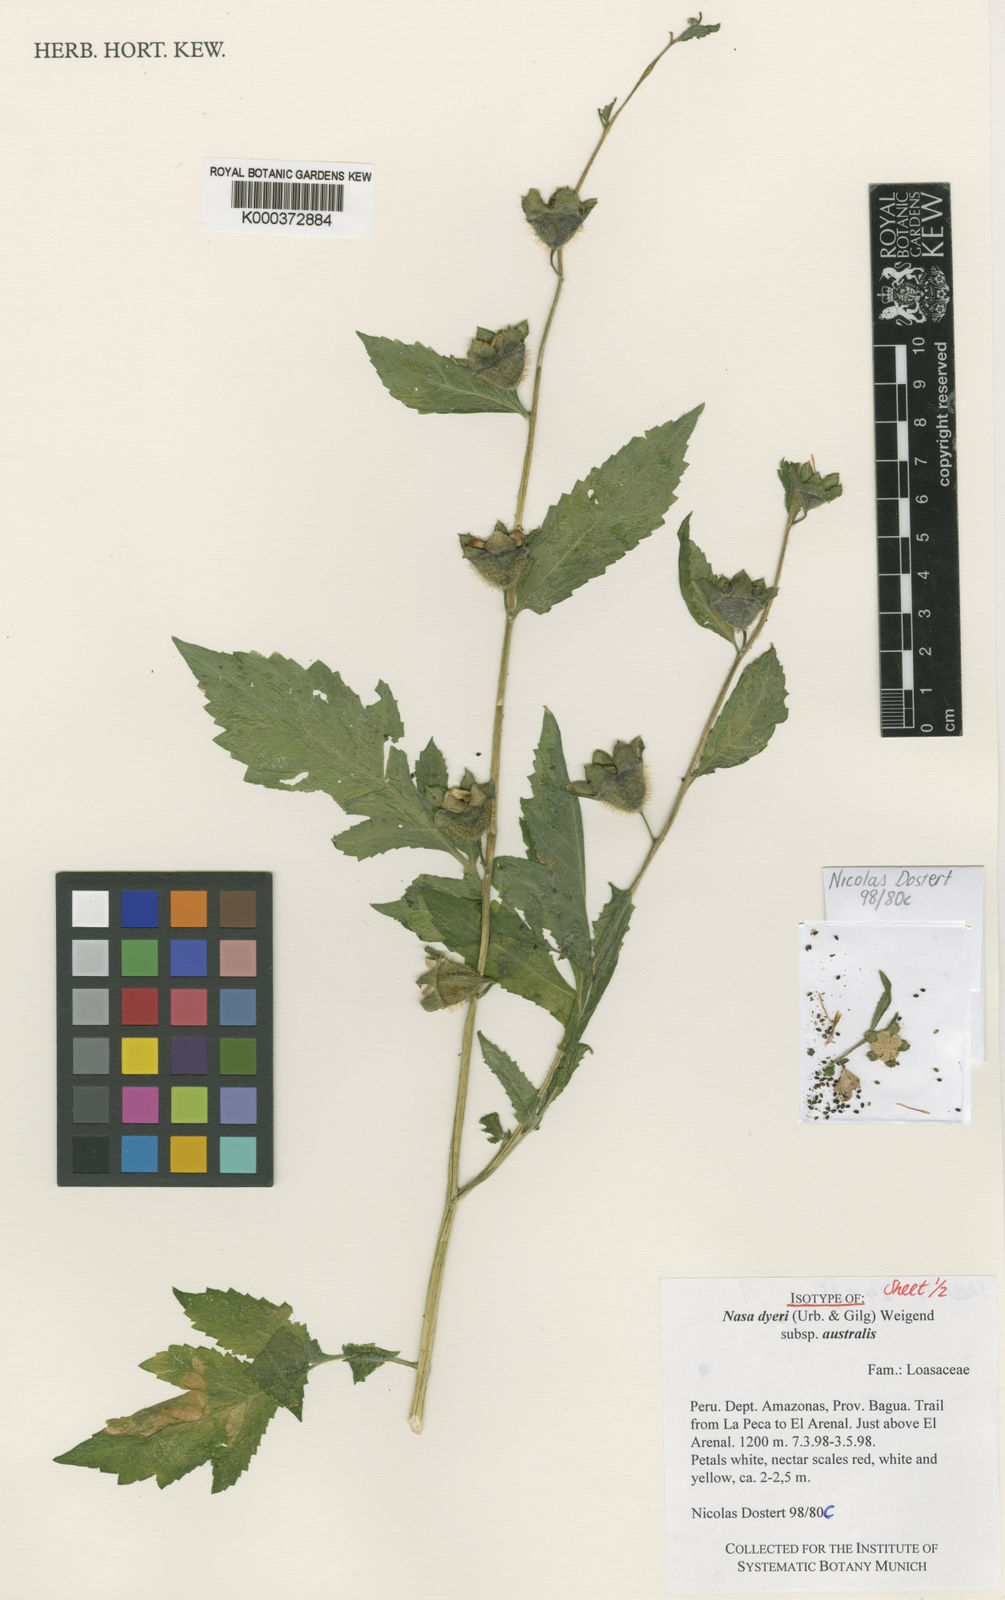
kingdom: Plantae
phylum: Tracheophyta
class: Magnoliopsida
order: Cornales
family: Loasaceae
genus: Nasa
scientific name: Nasa dyeri
